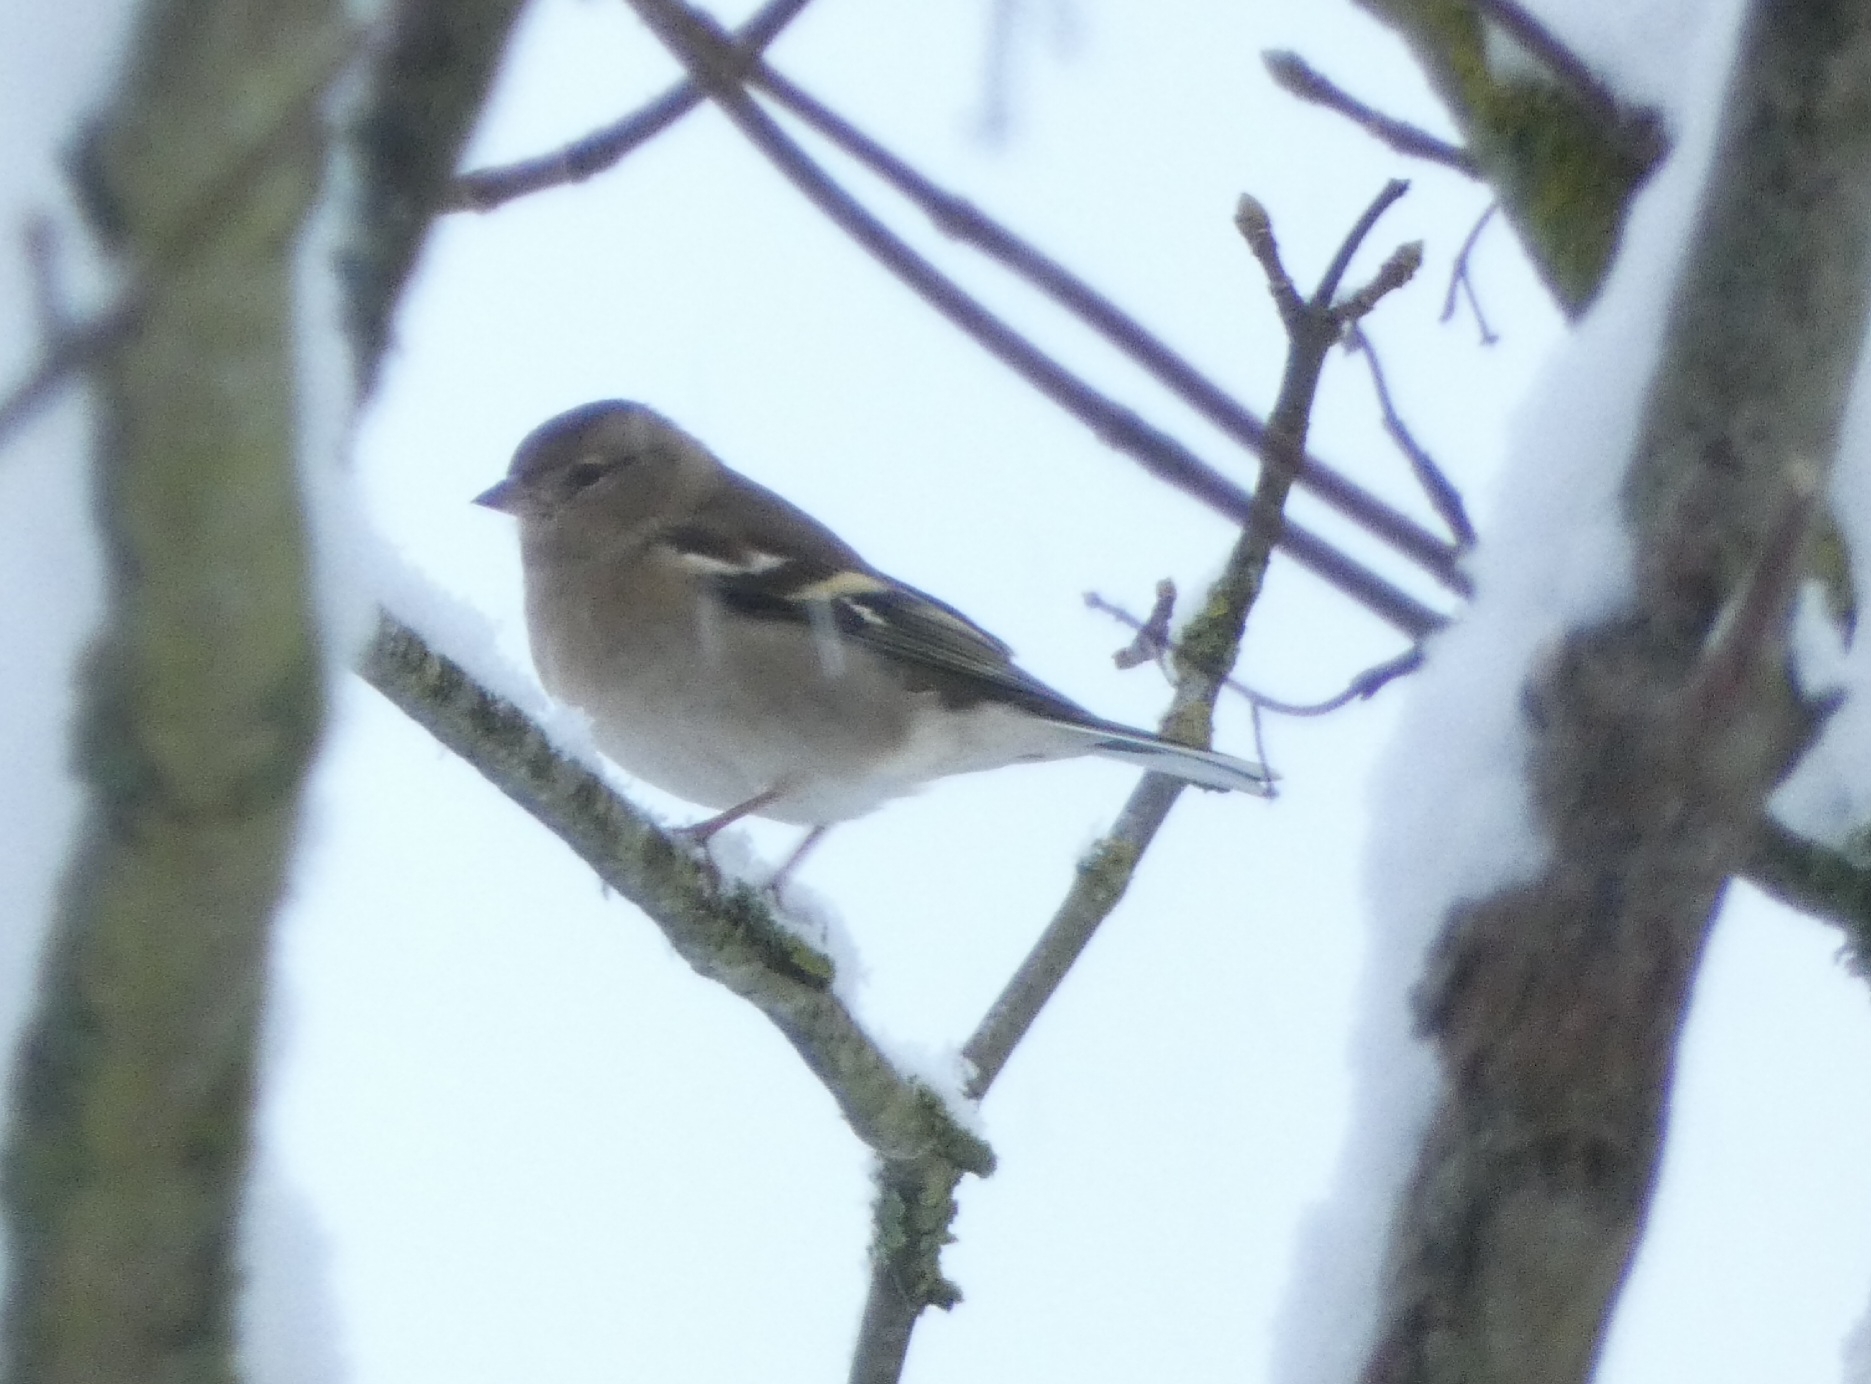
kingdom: Animalia
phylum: Chordata
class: Aves
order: Passeriformes
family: Fringillidae
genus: Fringilla
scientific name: Fringilla coelebs
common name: Bogfinke
